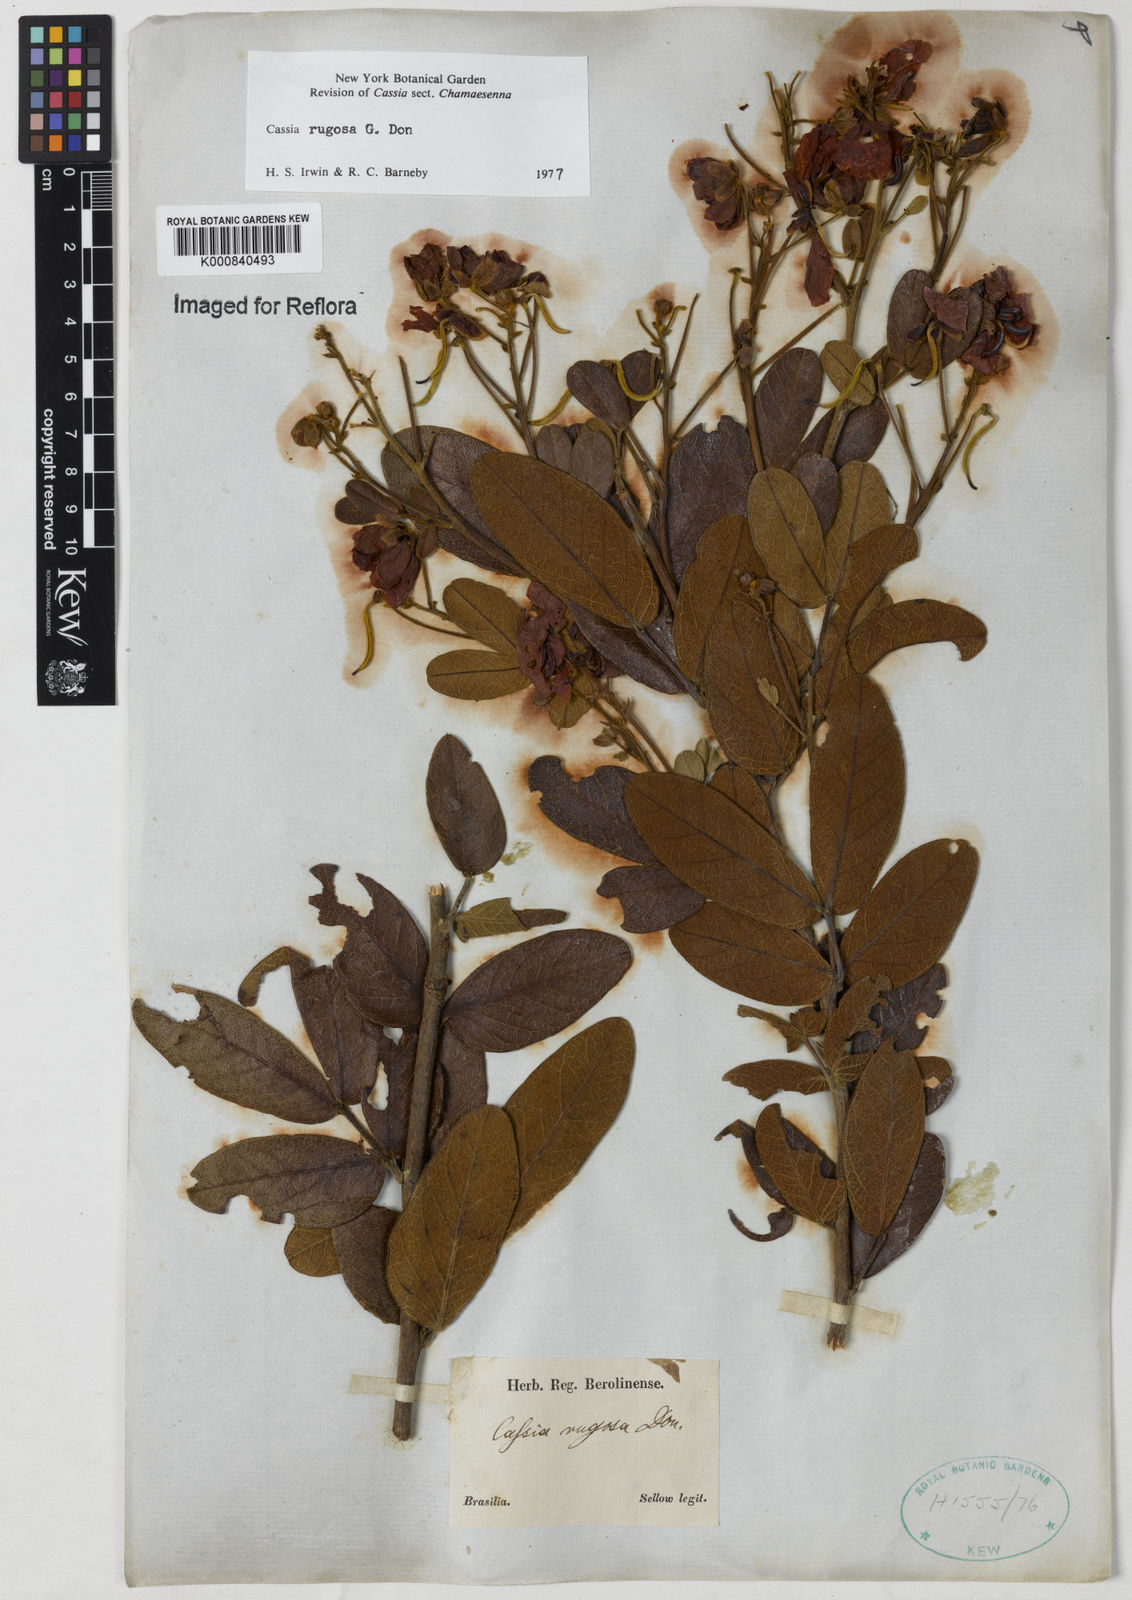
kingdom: Plantae
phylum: Tracheophyta
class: Magnoliopsida
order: Fabales
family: Fabaceae
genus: Senna
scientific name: Senna rugosa
